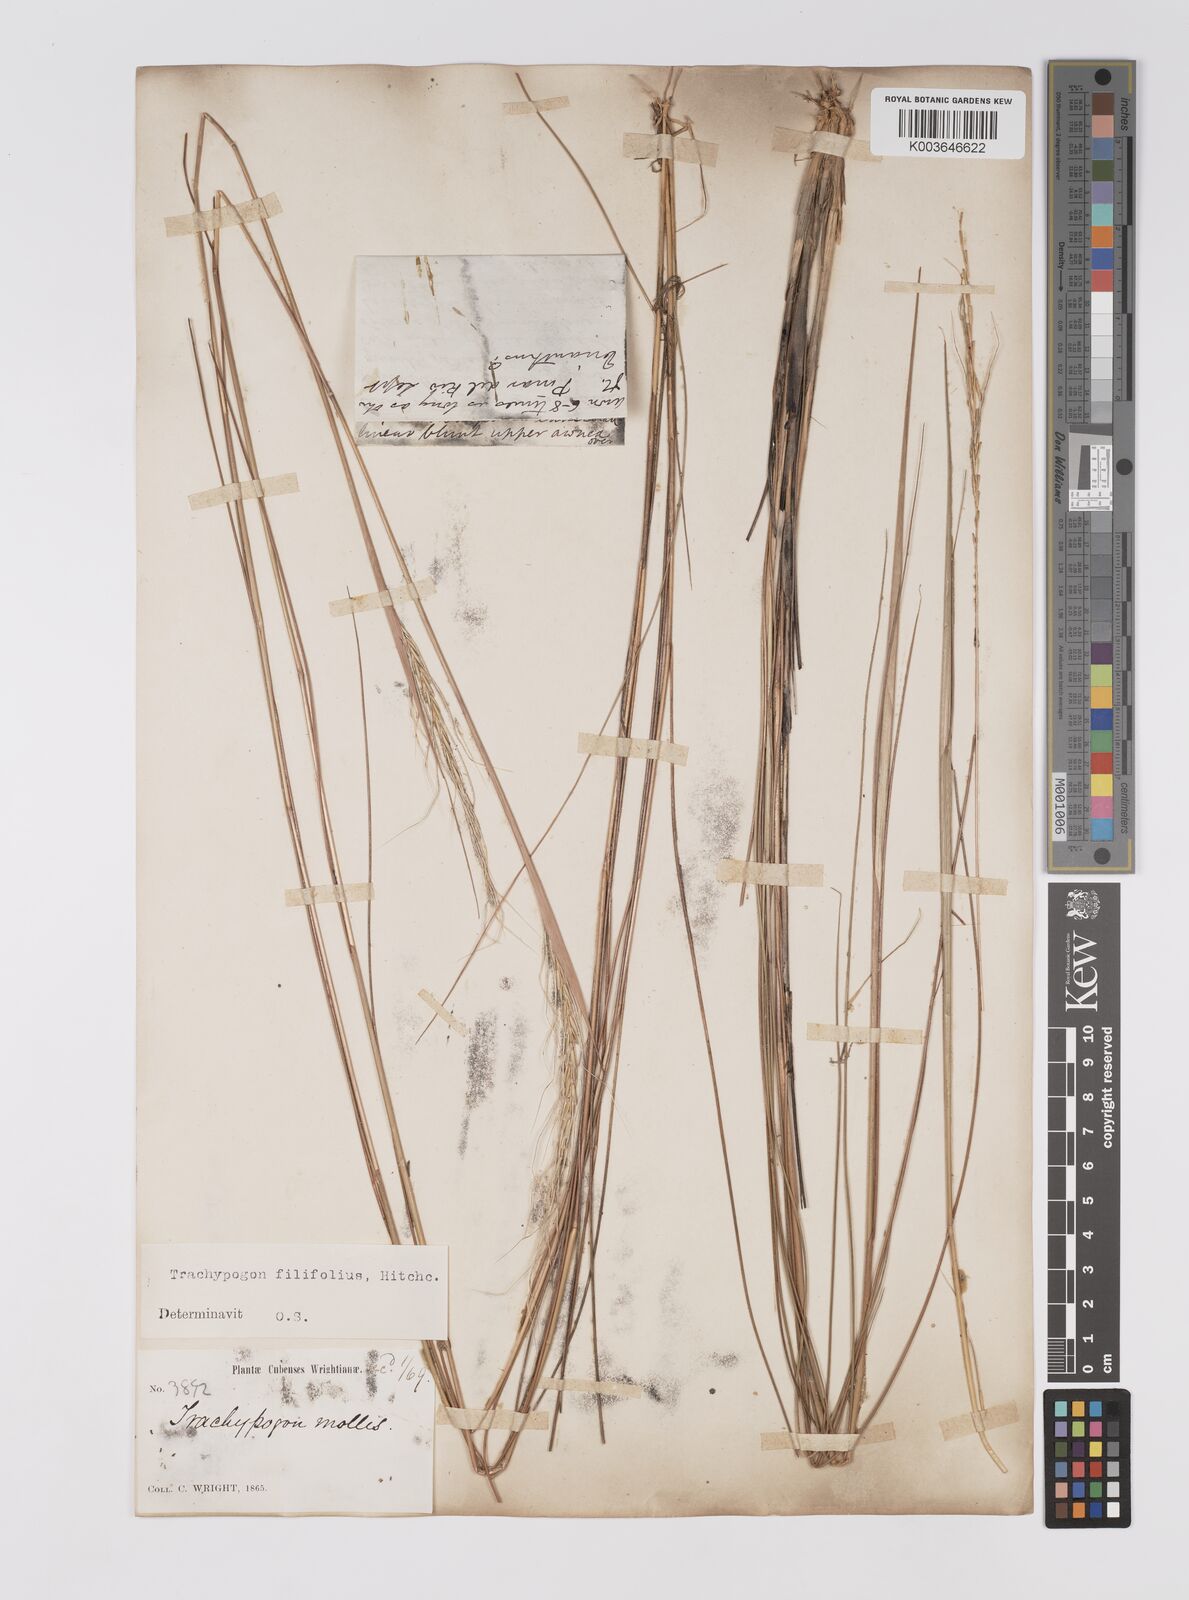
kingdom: Plantae
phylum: Tracheophyta
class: Liliopsida
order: Poales
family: Poaceae
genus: Trachypogon
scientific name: Trachypogon macroglossus
